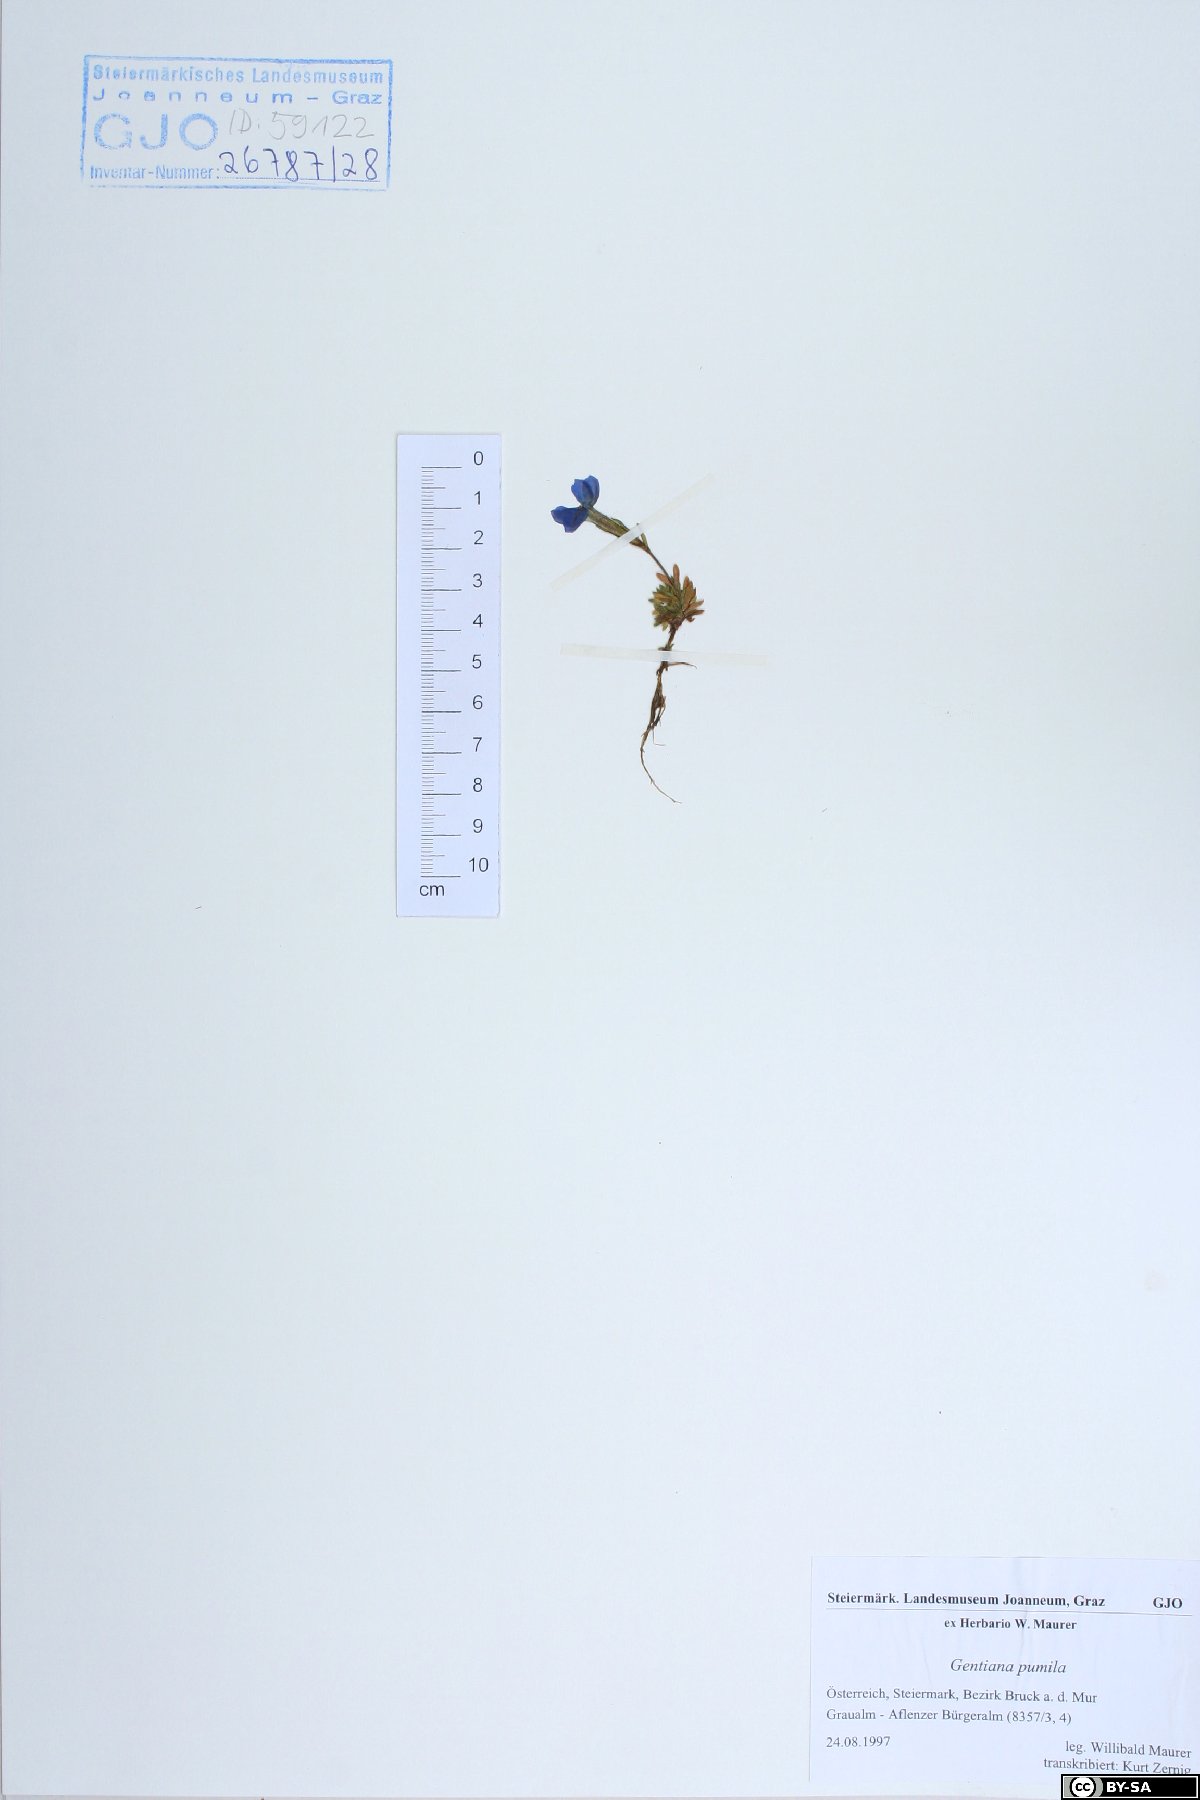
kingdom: Plantae
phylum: Tracheophyta
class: Magnoliopsida
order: Gentianales
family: Gentianaceae
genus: Gentiana
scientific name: Gentiana pumila
